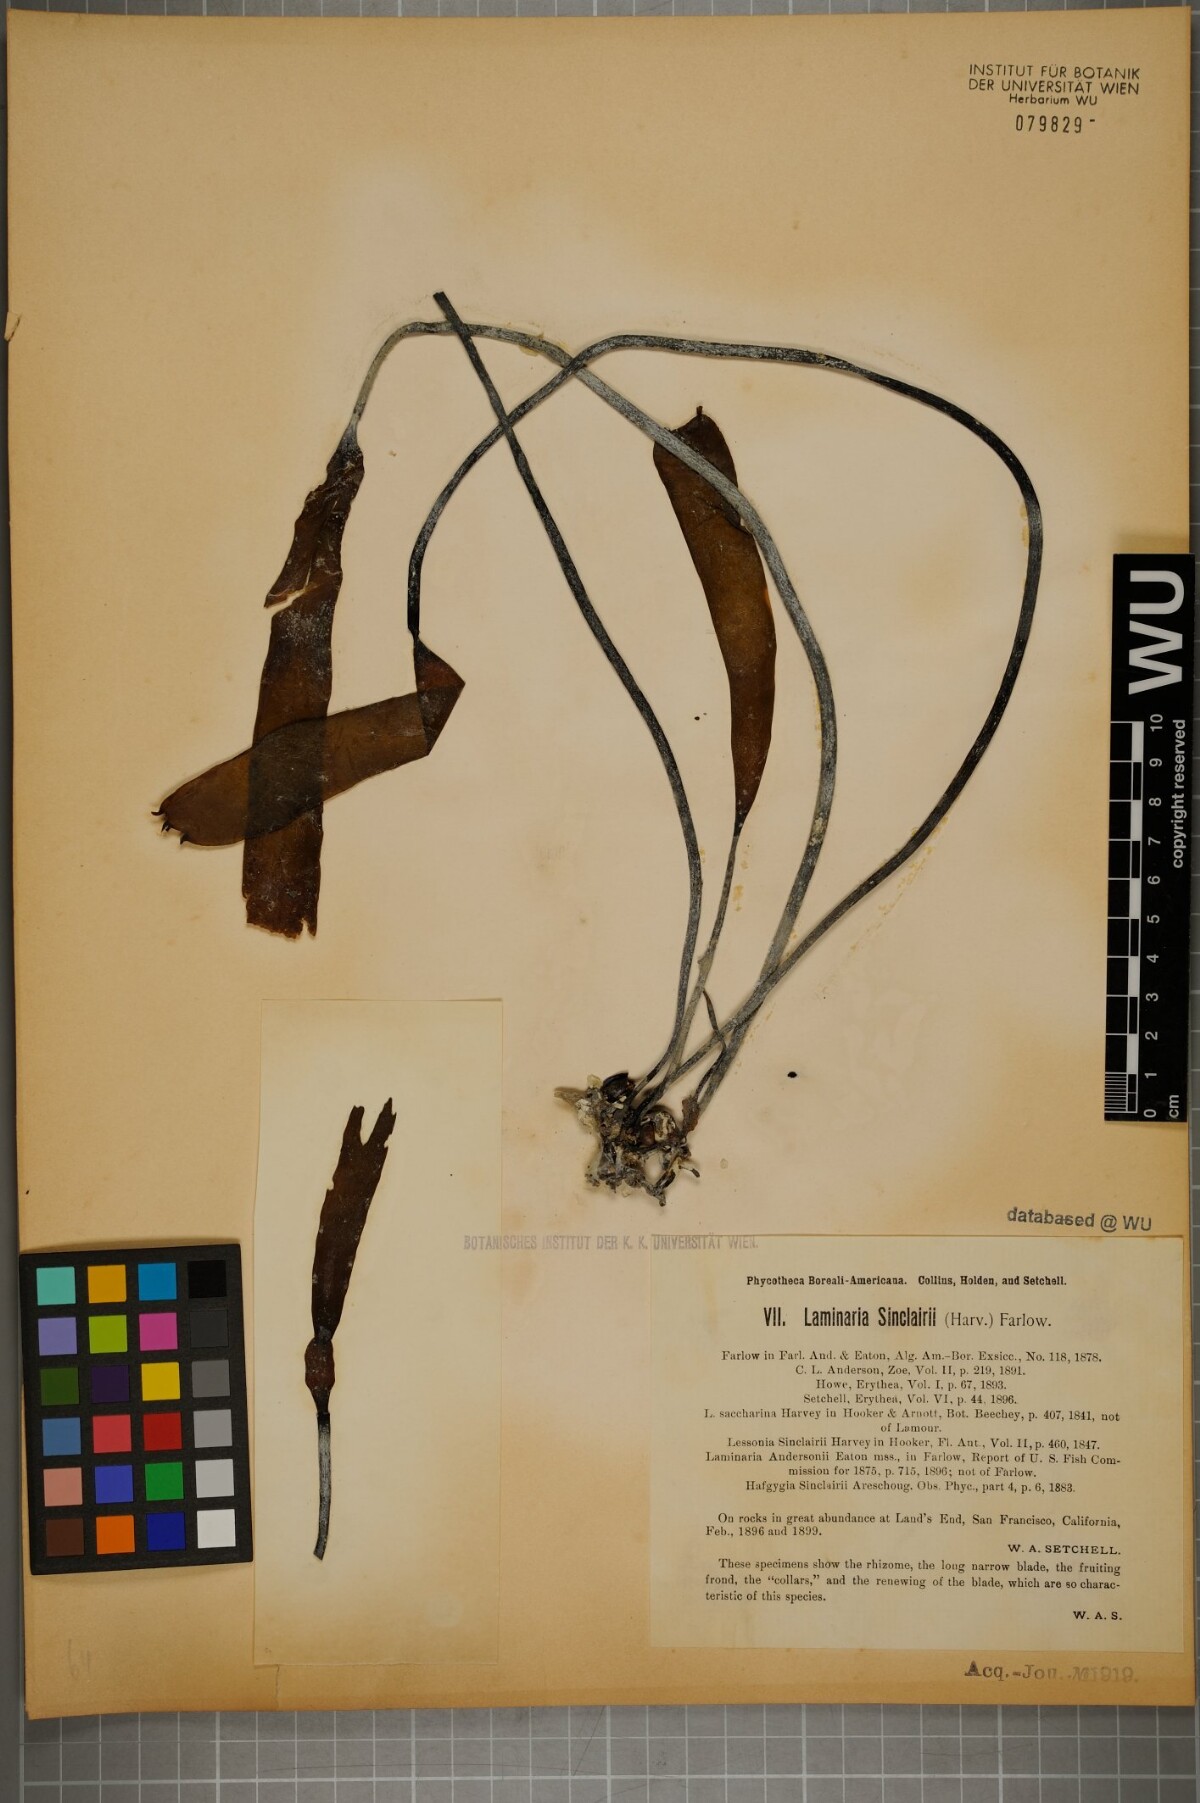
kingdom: Chromista
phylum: Ochrophyta
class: Phaeophyceae
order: Laminariales
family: Laminariaceae
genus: Laminaria
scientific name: Laminaria sinclairii
